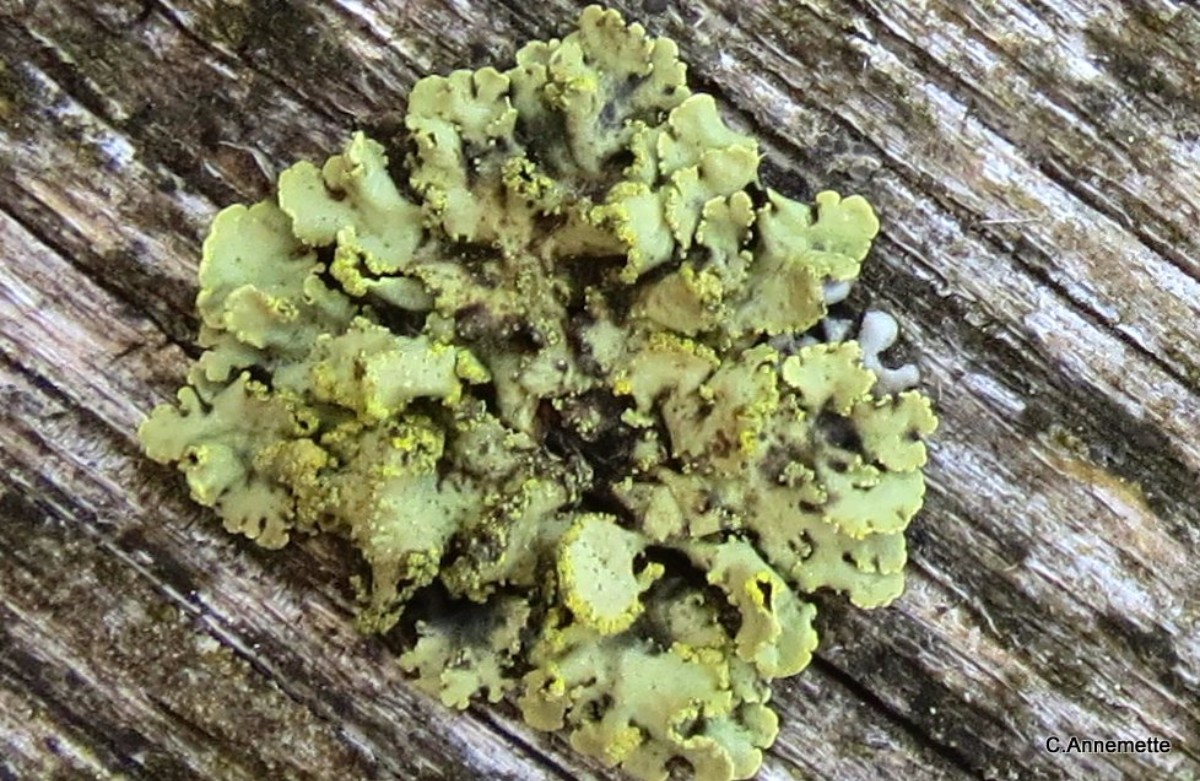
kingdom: Fungi
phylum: Ascomycota
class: Lecanoromycetes
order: Lecanorales
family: Parmeliaceae
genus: Vulpicida
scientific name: Vulpicida pinastri
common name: gul kruslav
